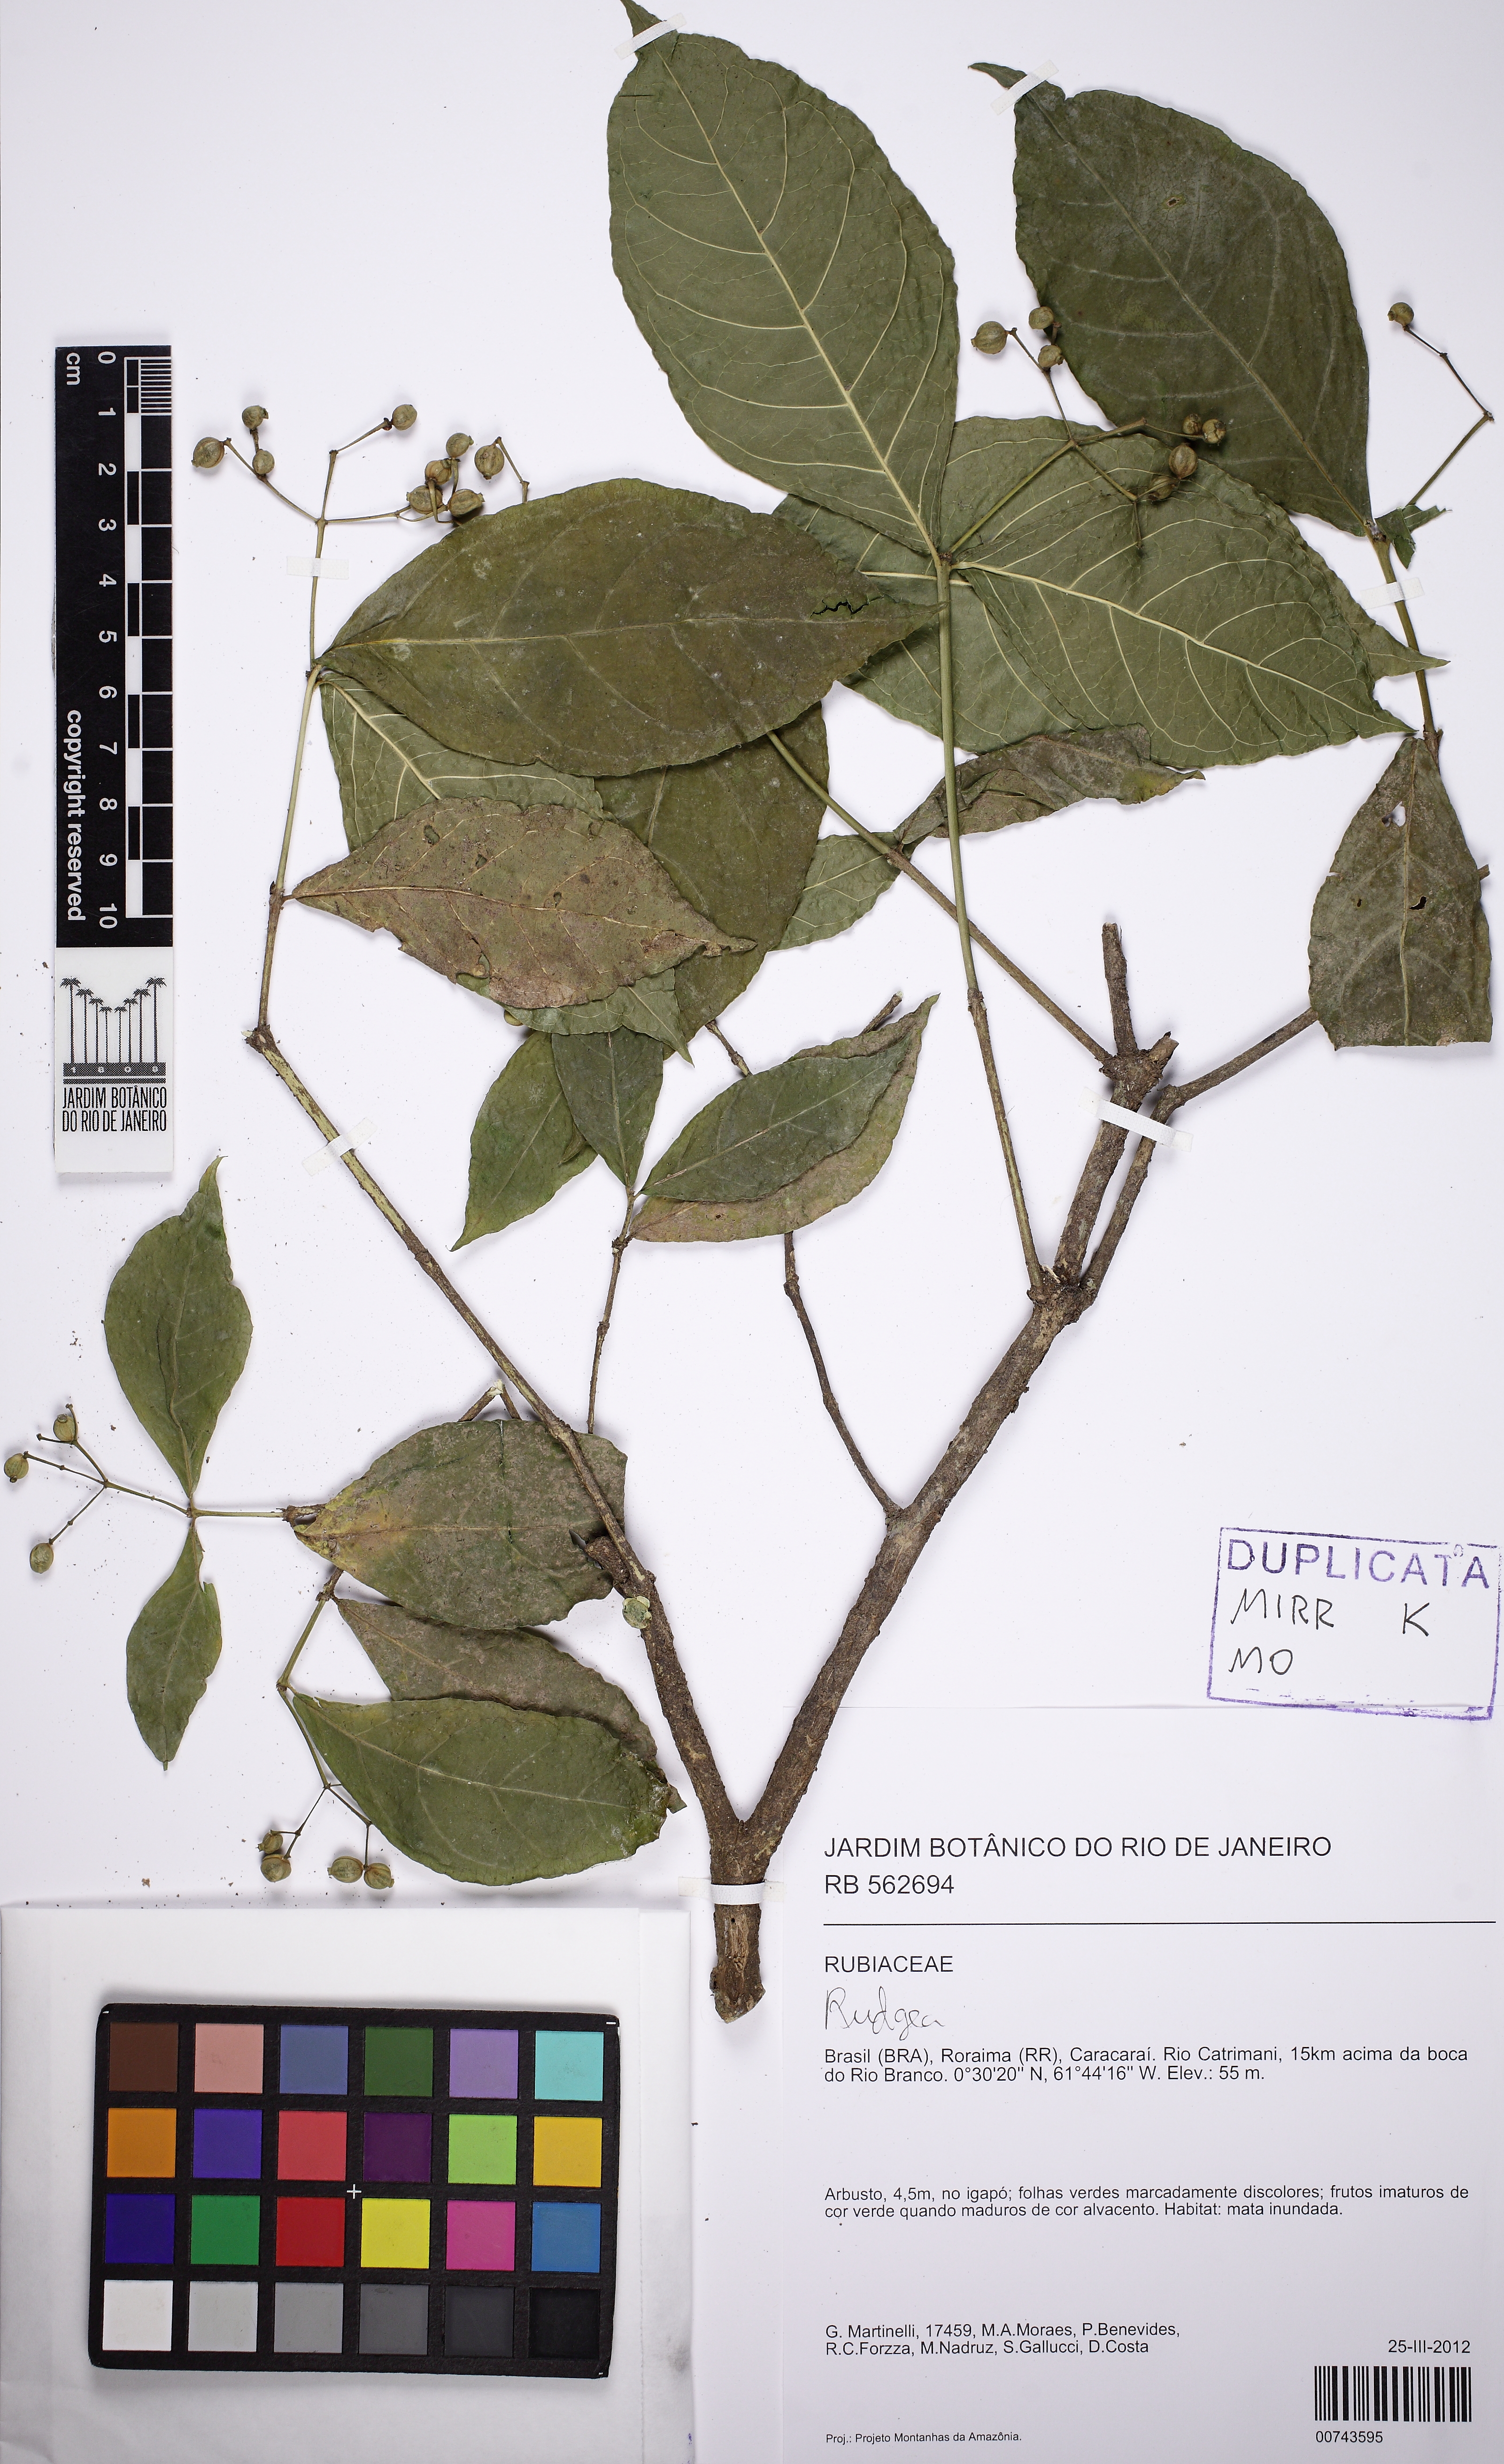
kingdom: Plantae
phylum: Tracheophyta
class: Magnoliopsida
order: Gentianales
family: Rubiaceae
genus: Rudgea
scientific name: Rudgea cornifolia
